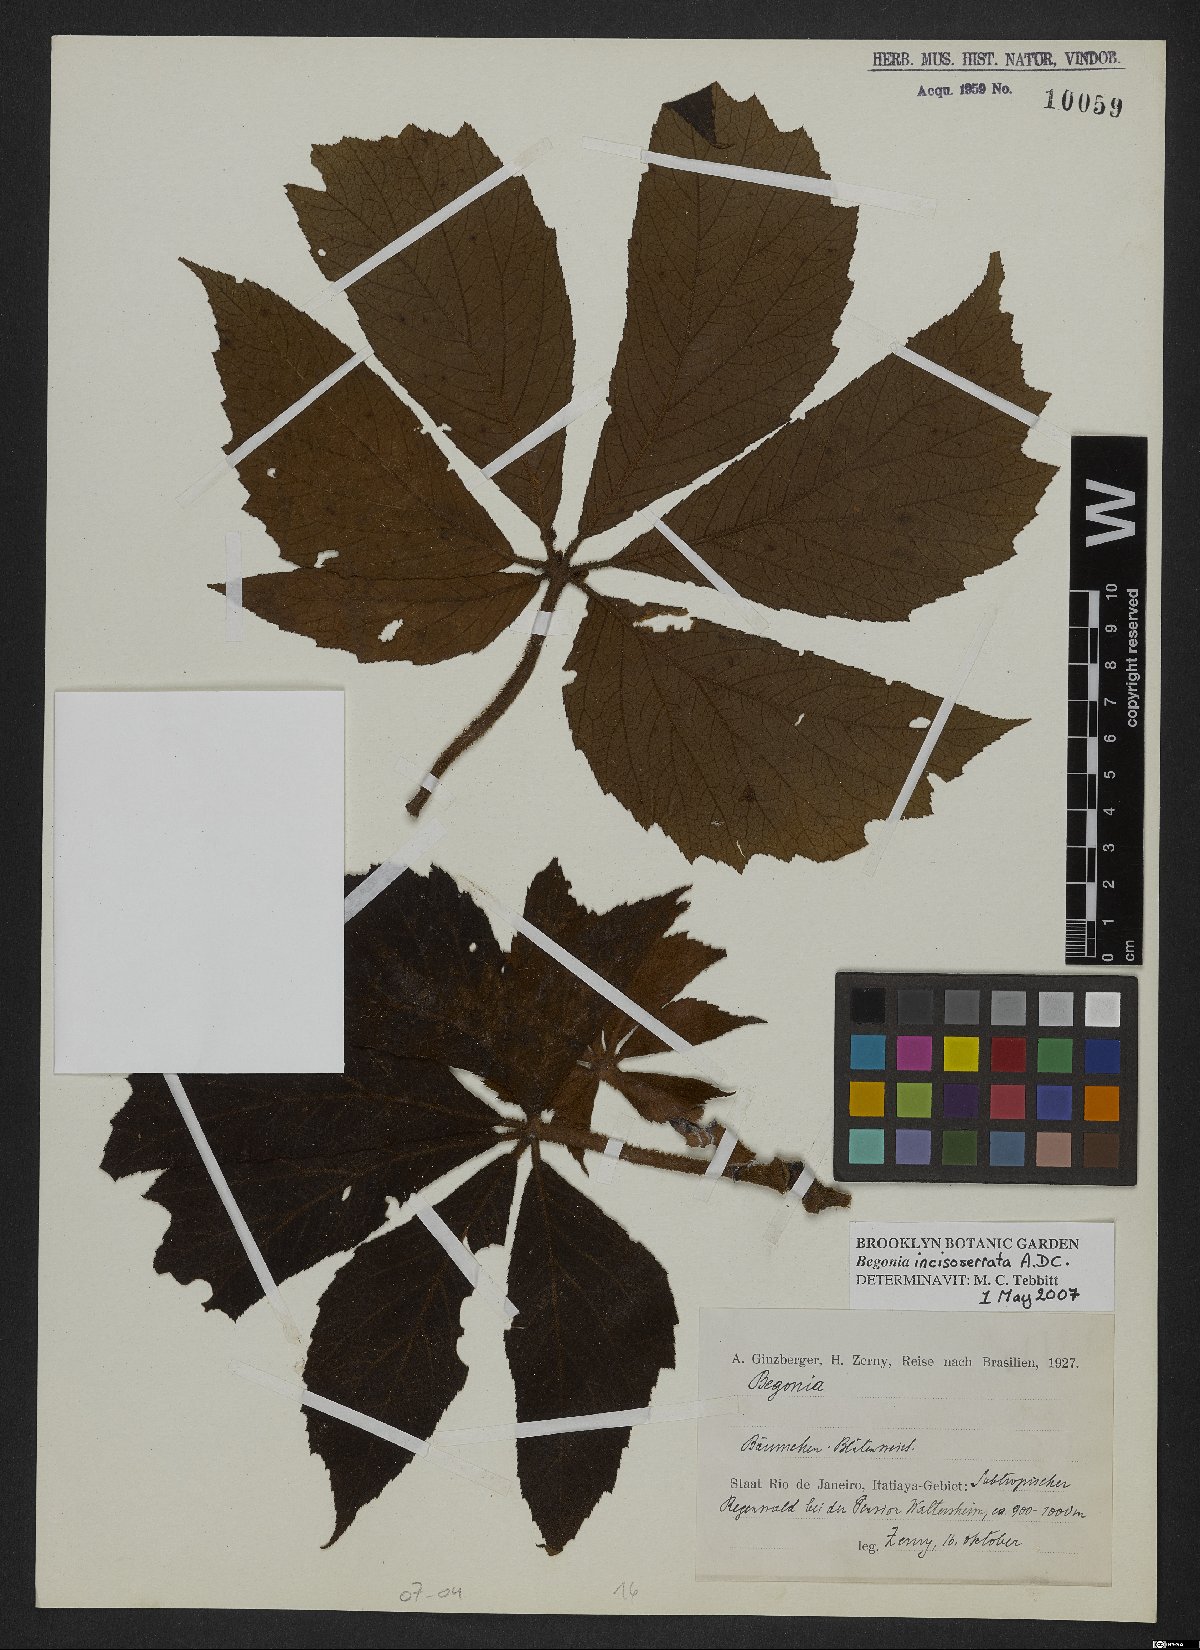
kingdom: Plantae
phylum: Tracheophyta
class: Magnoliopsida
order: Cucurbitales
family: Begoniaceae
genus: Begonia
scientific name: Begonia incisoserrata
